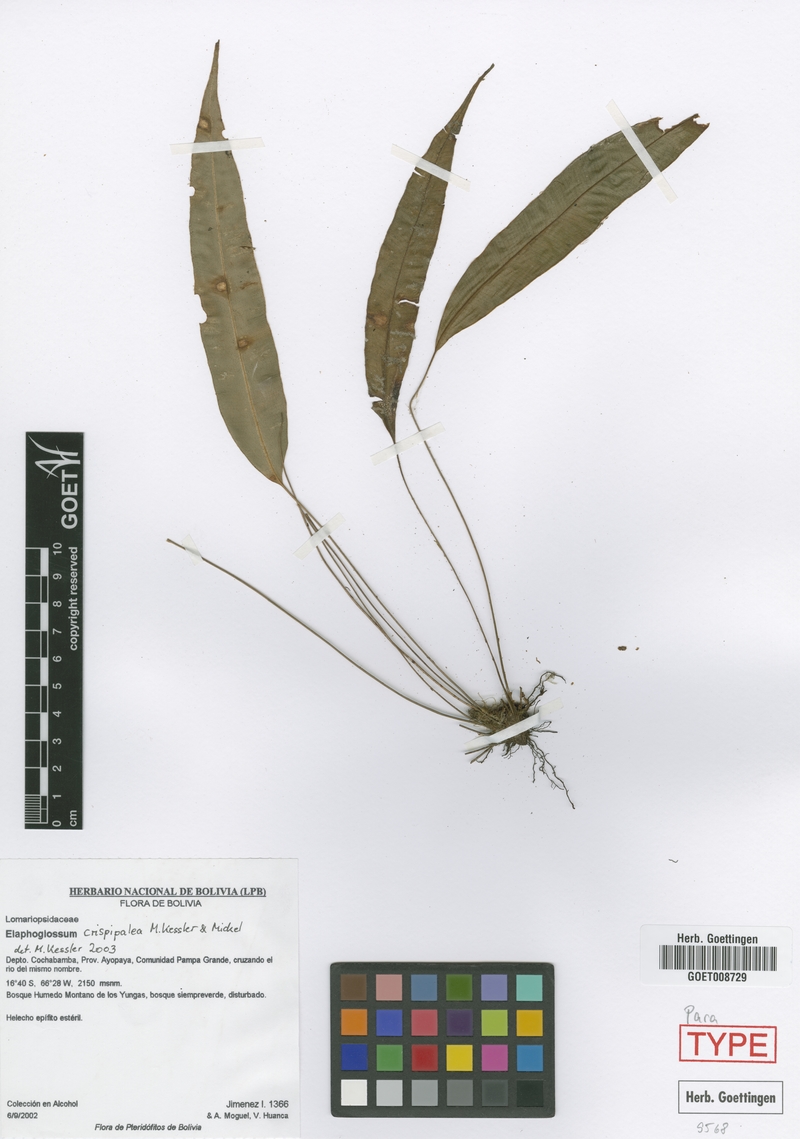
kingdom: Plantae
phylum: Tracheophyta
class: Polypodiopsida
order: Polypodiales
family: Dryopteridaceae
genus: Elaphoglossum
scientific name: Elaphoglossum miersii
